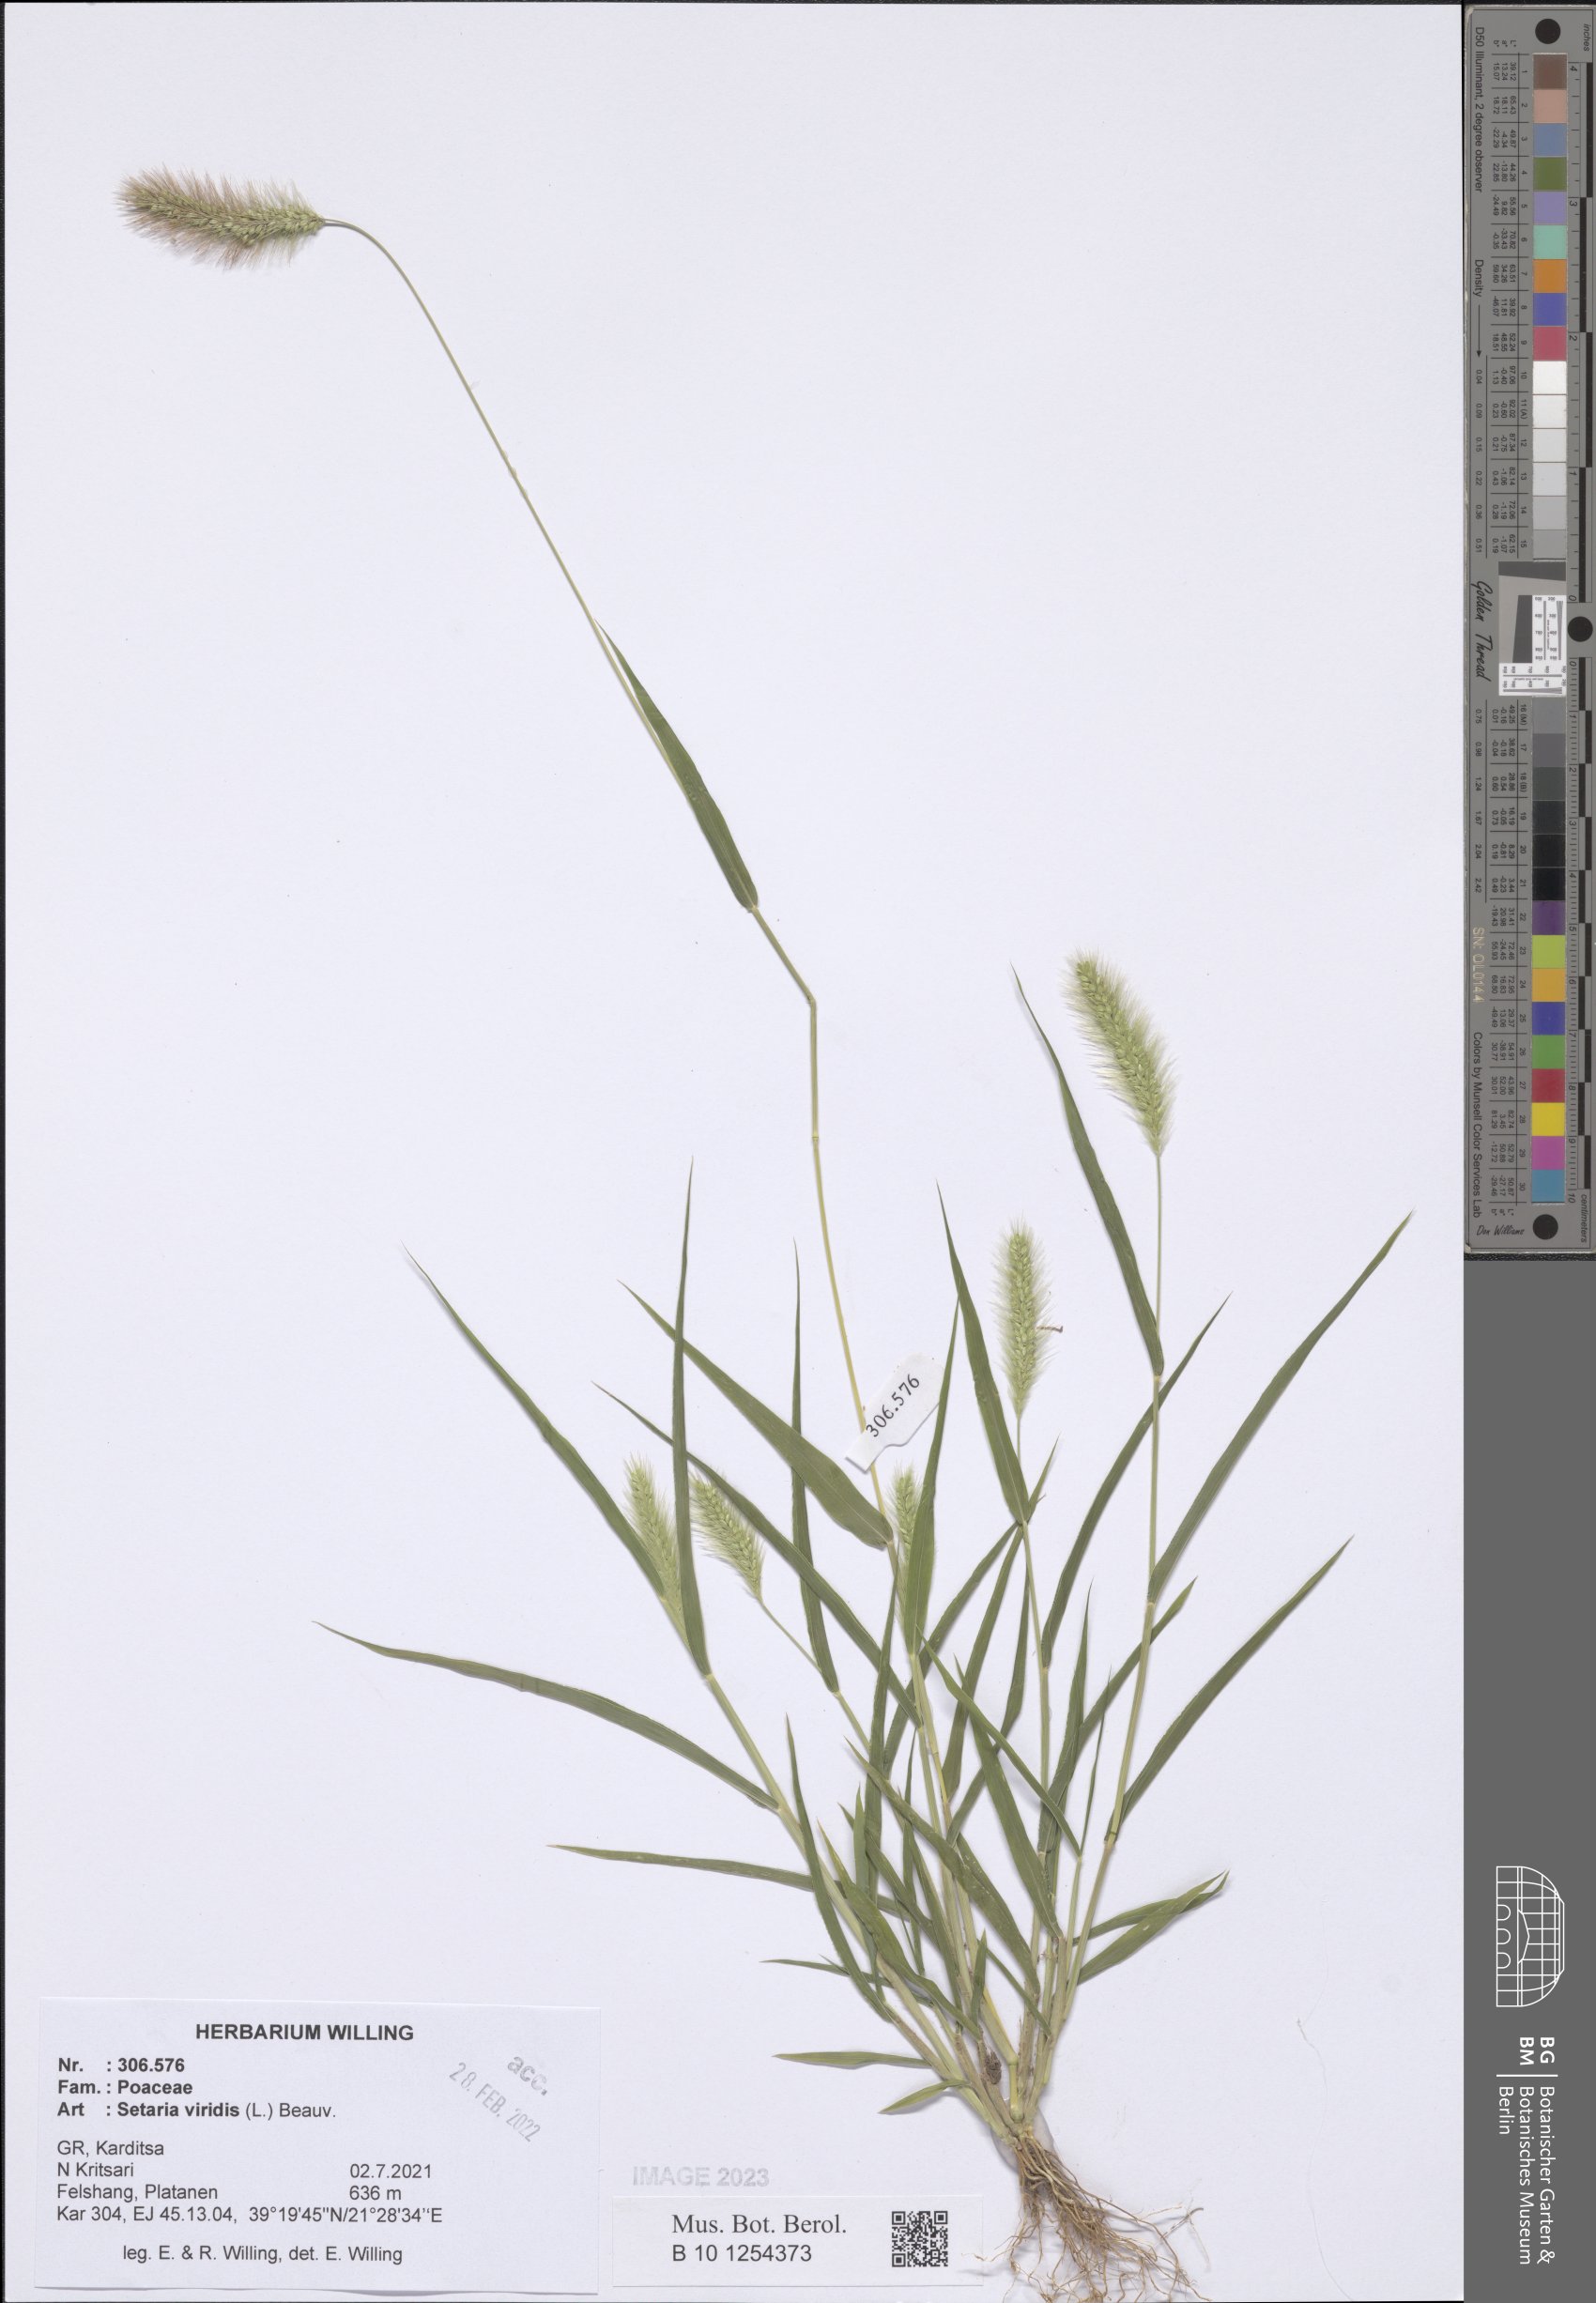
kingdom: Plantae
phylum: Tracheophyta
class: Liliopsida
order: Poales
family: Poaceae
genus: Setaria
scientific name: Setaria viridis
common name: Green bristlegrass
